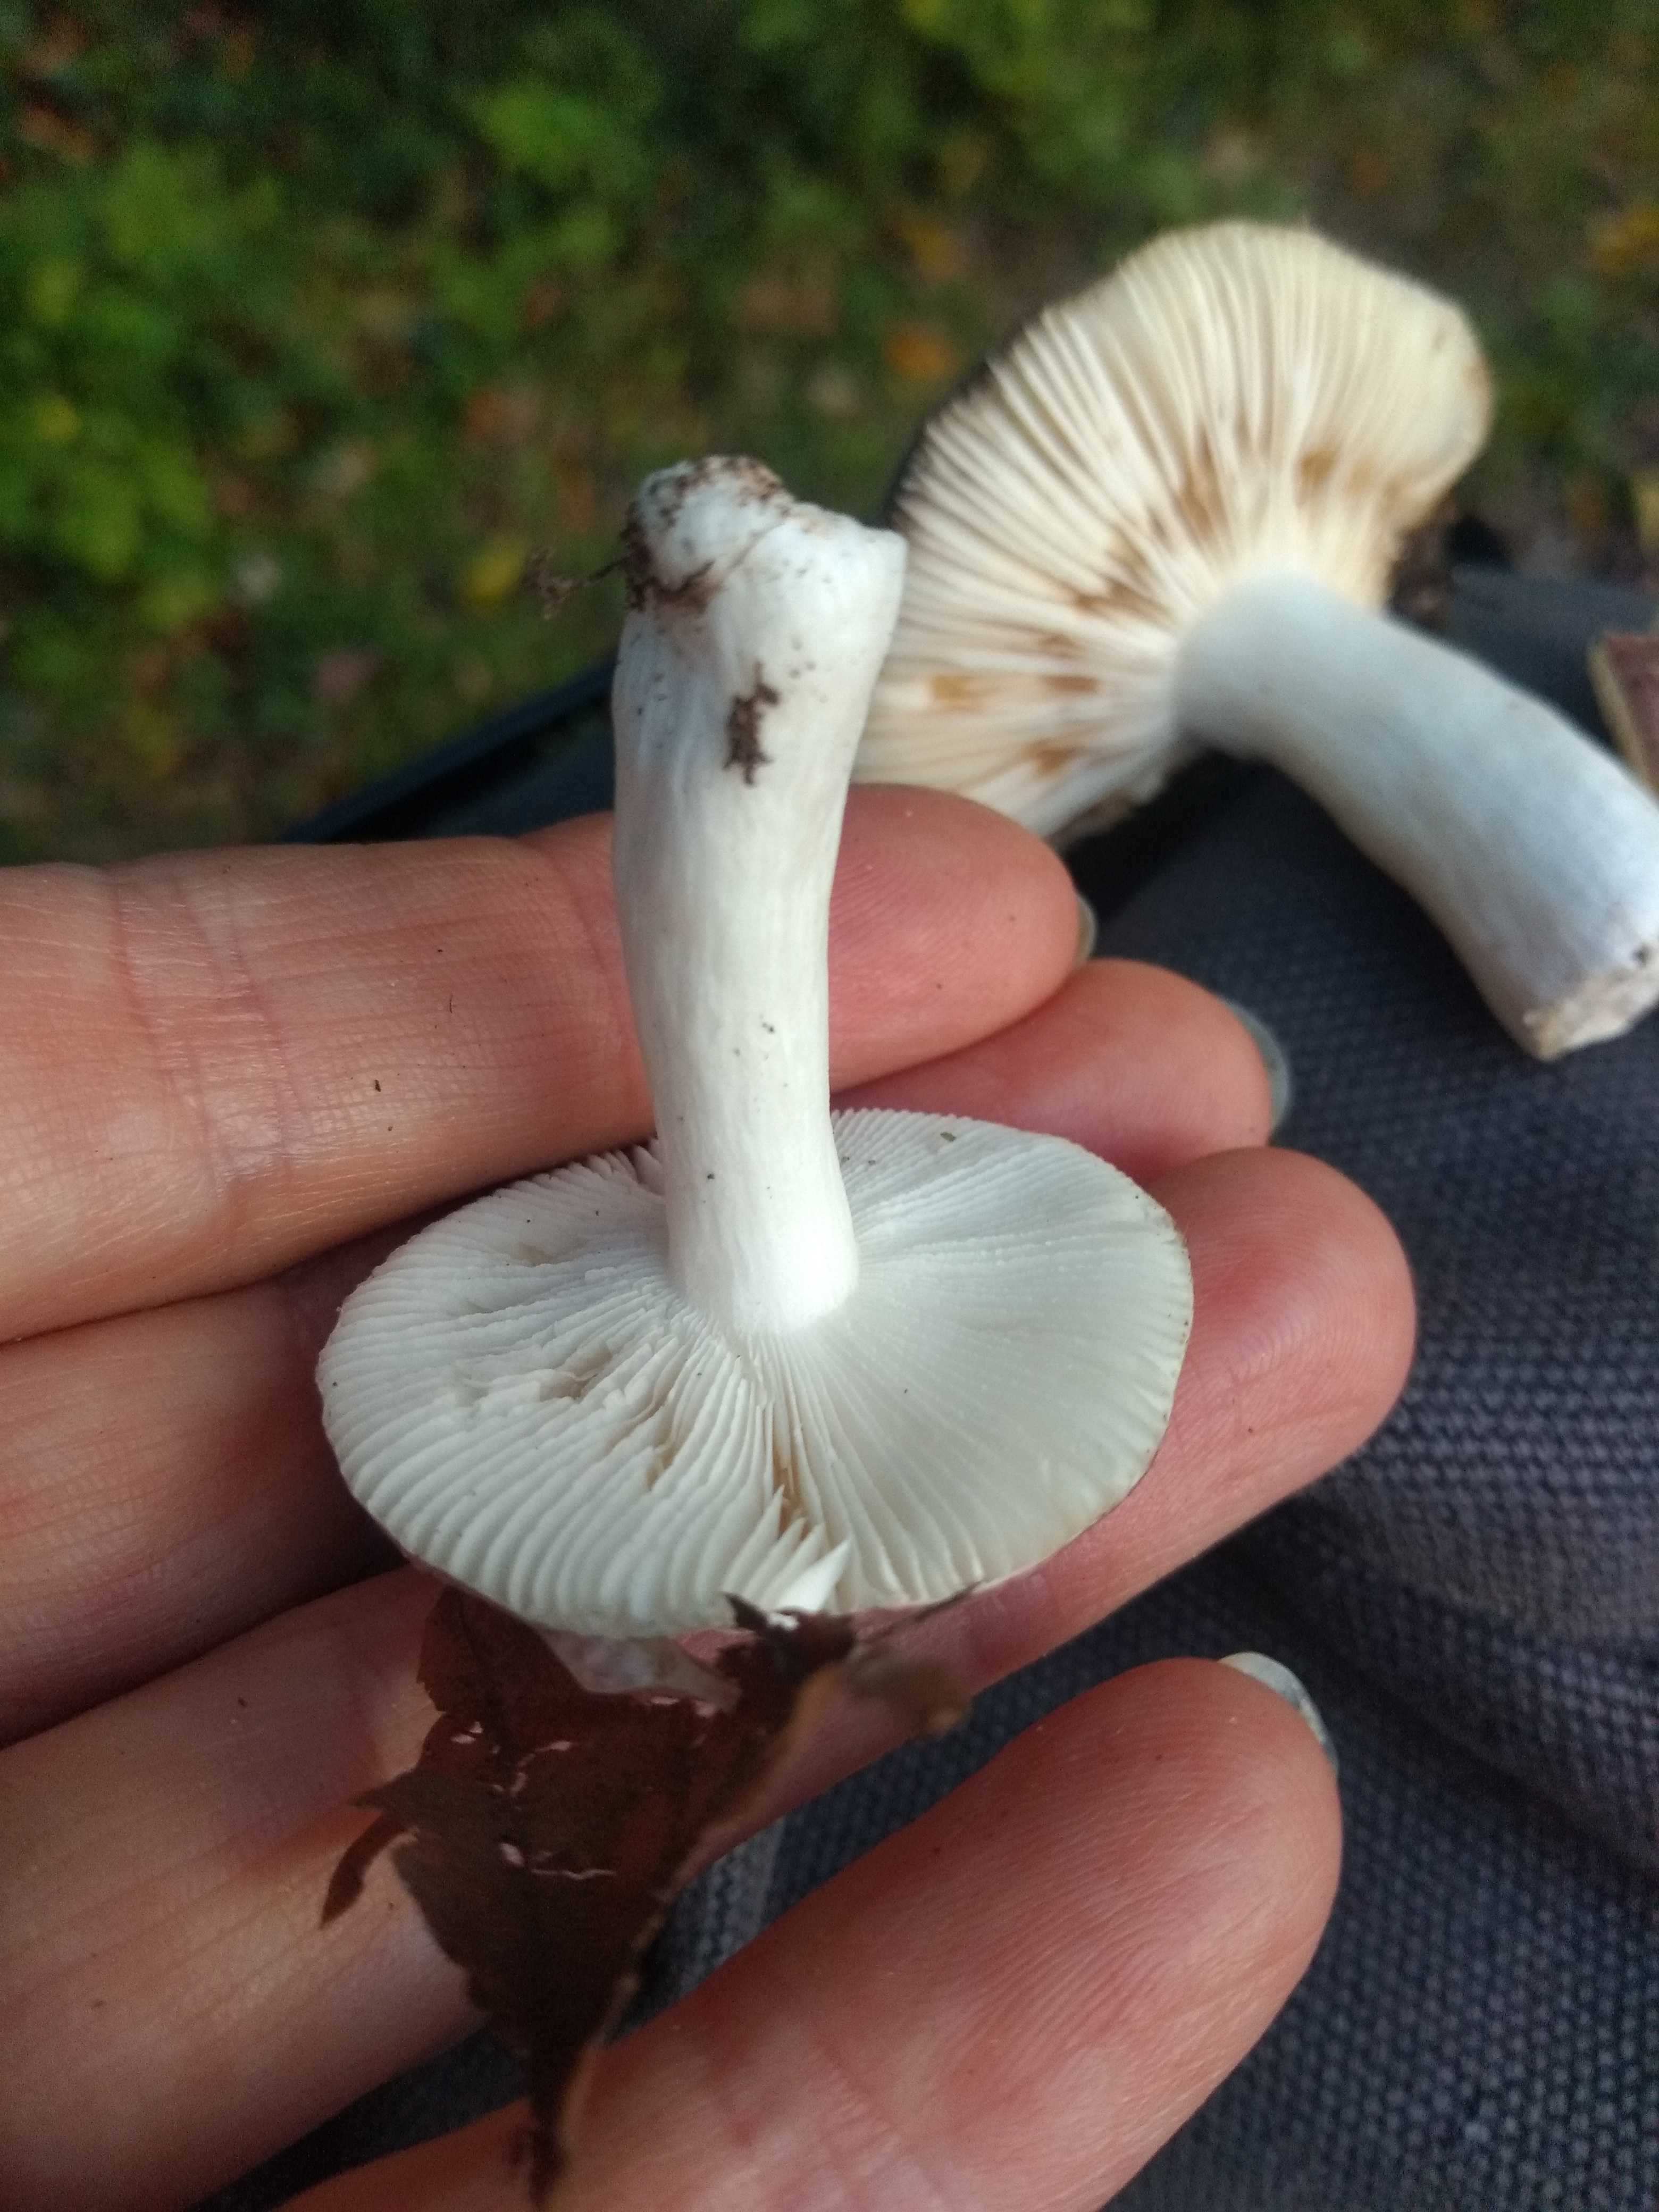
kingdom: Fungi
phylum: Basidiomycota
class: Agaricomycetes
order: Russulales
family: Russulaceae
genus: Russula
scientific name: Russula fragilis
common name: savbladet skørhat
